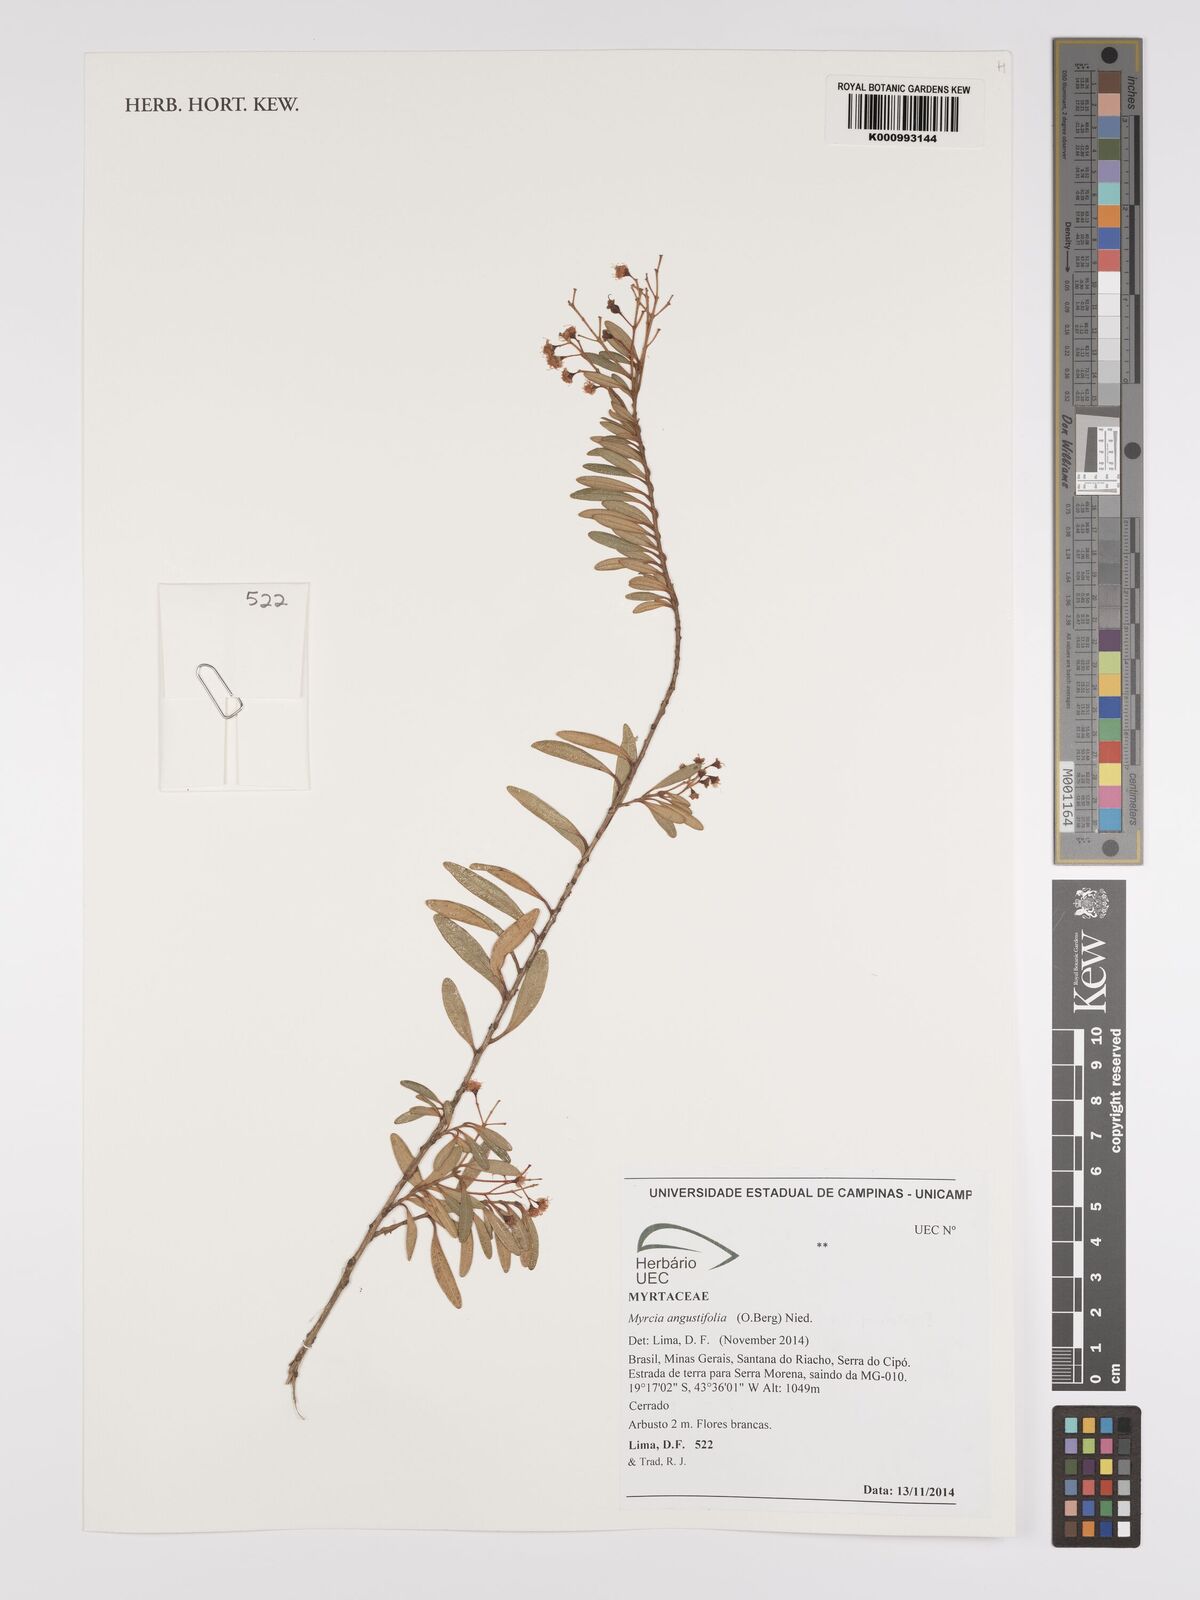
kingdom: Plantae
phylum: Tracheophyta
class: Magnoliopsida
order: Myrtales
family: Myrtaceae
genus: Myrcia
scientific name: Myrcia guianensis
